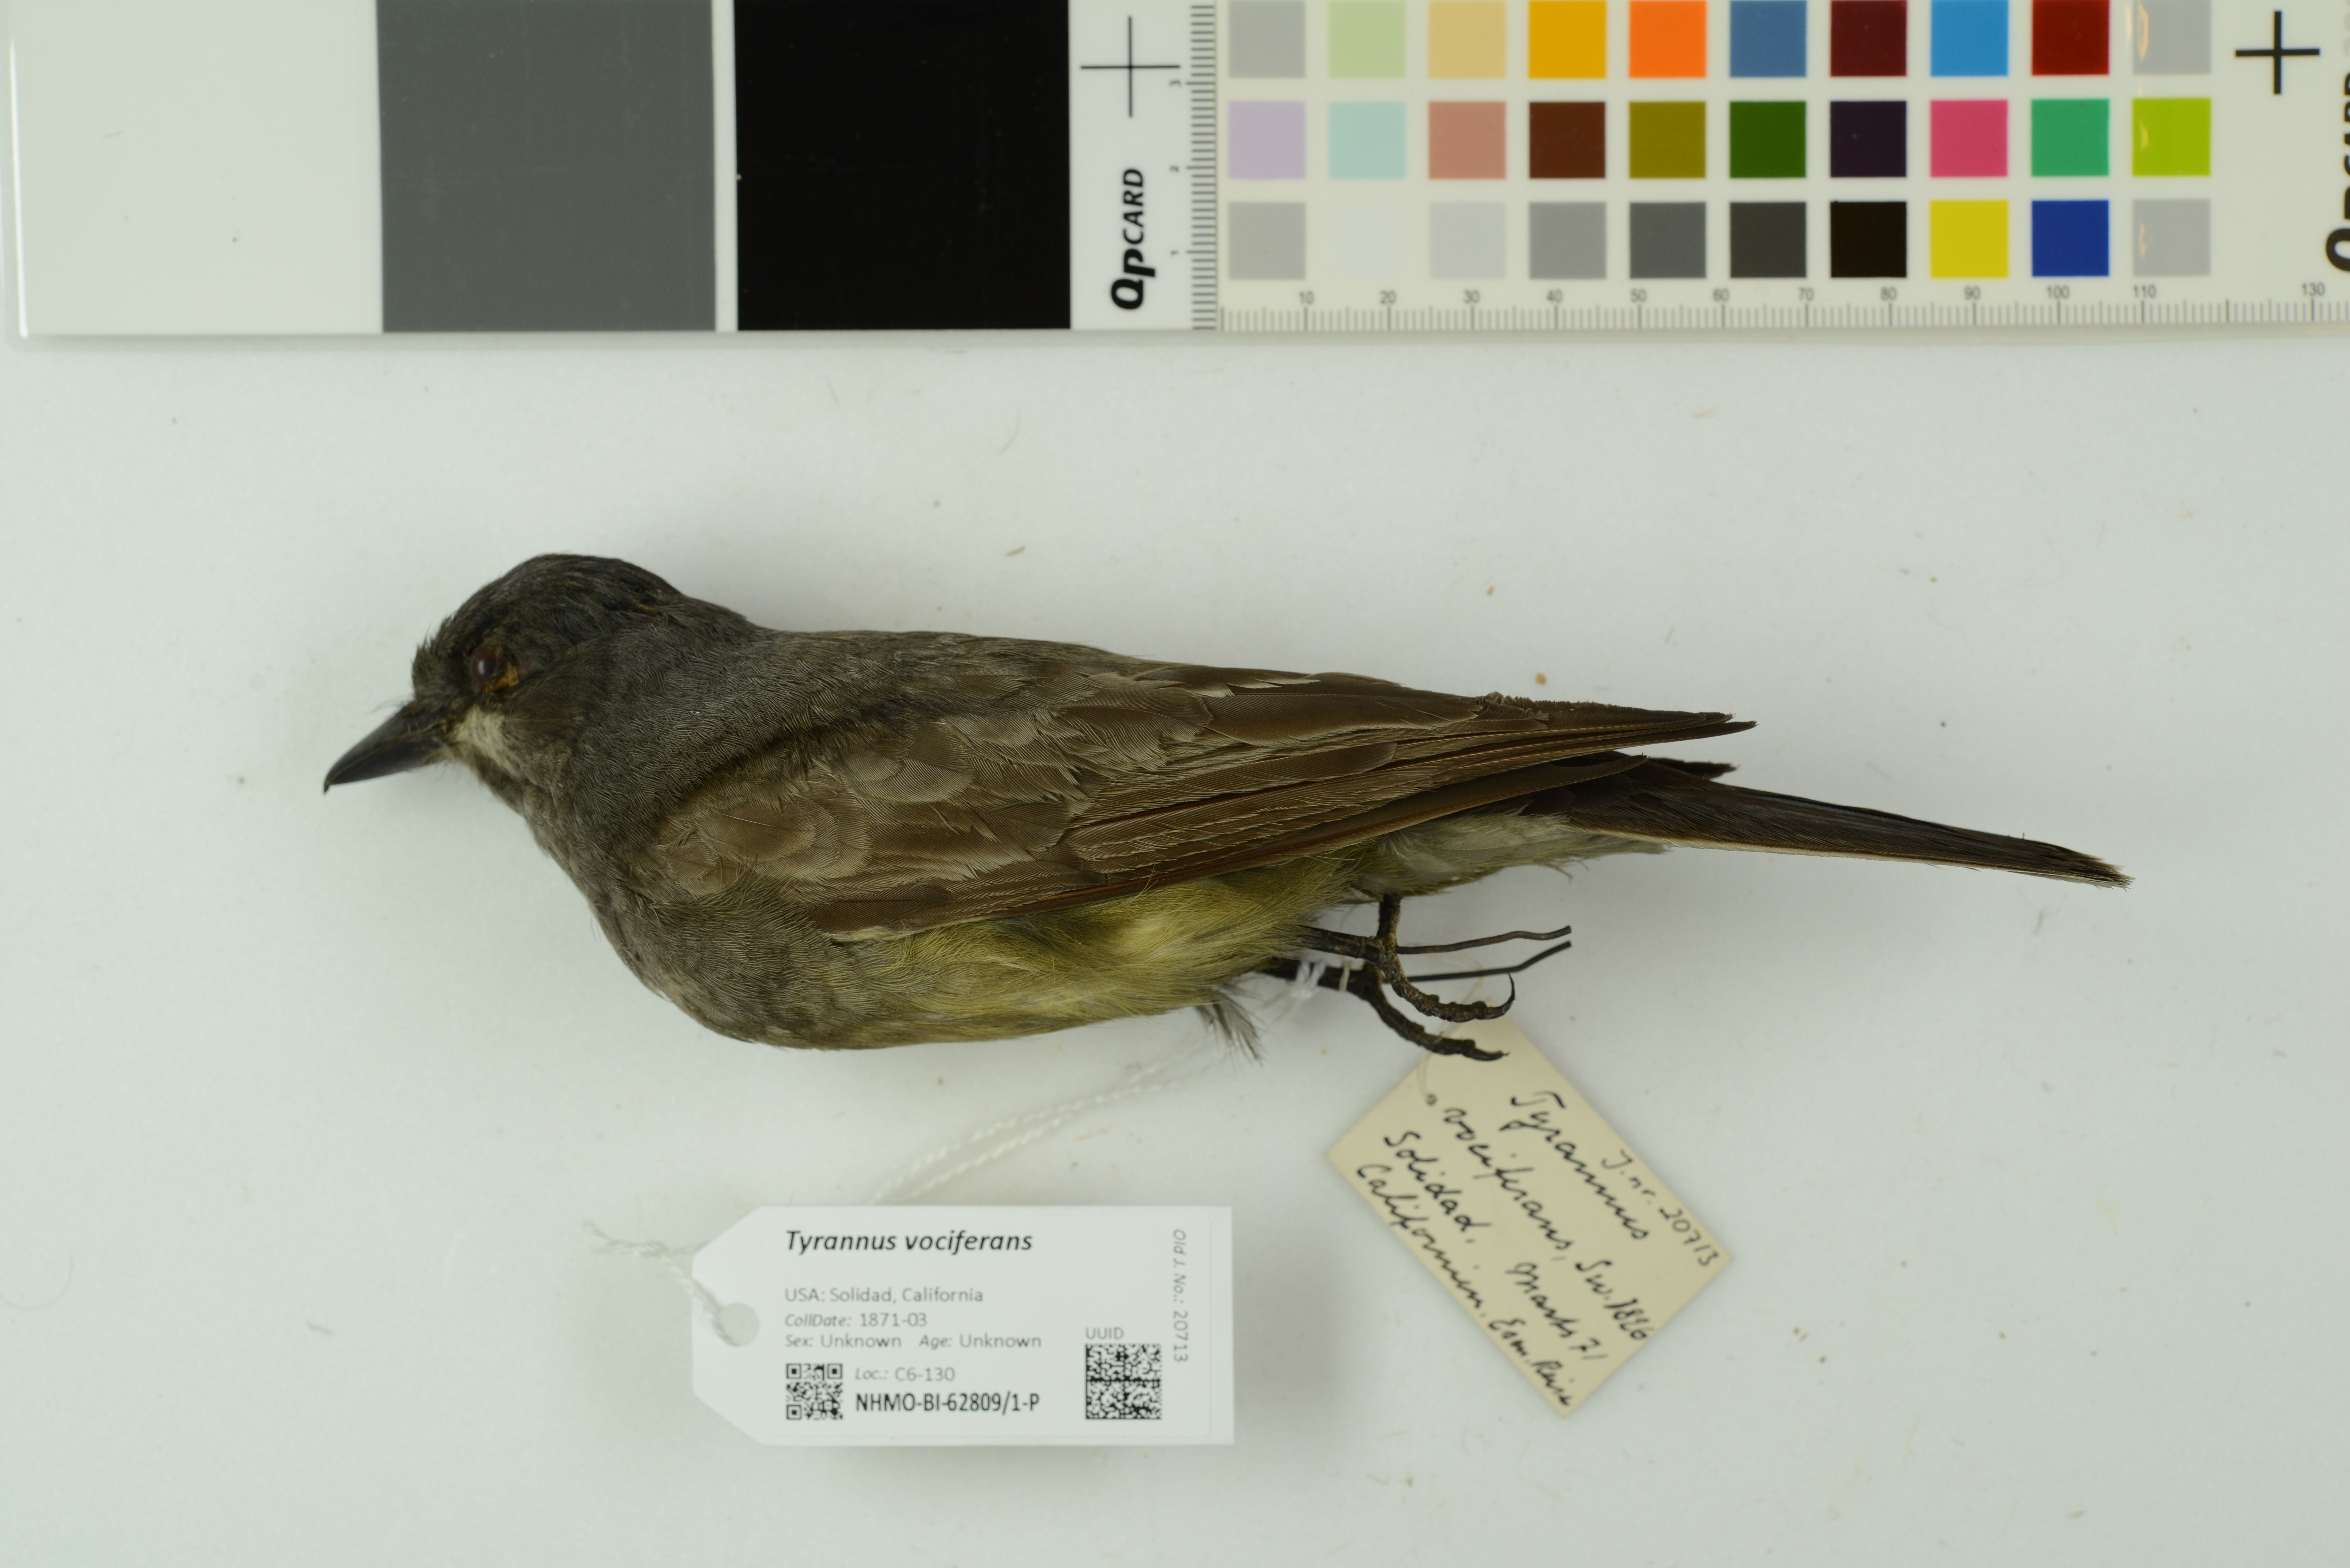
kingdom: Animalia
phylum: Chordata
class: Aves
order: Passeriformes
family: Tyrannidae
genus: Tyrannus
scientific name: Tyrannus vociferans
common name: Cassin's kingbird
